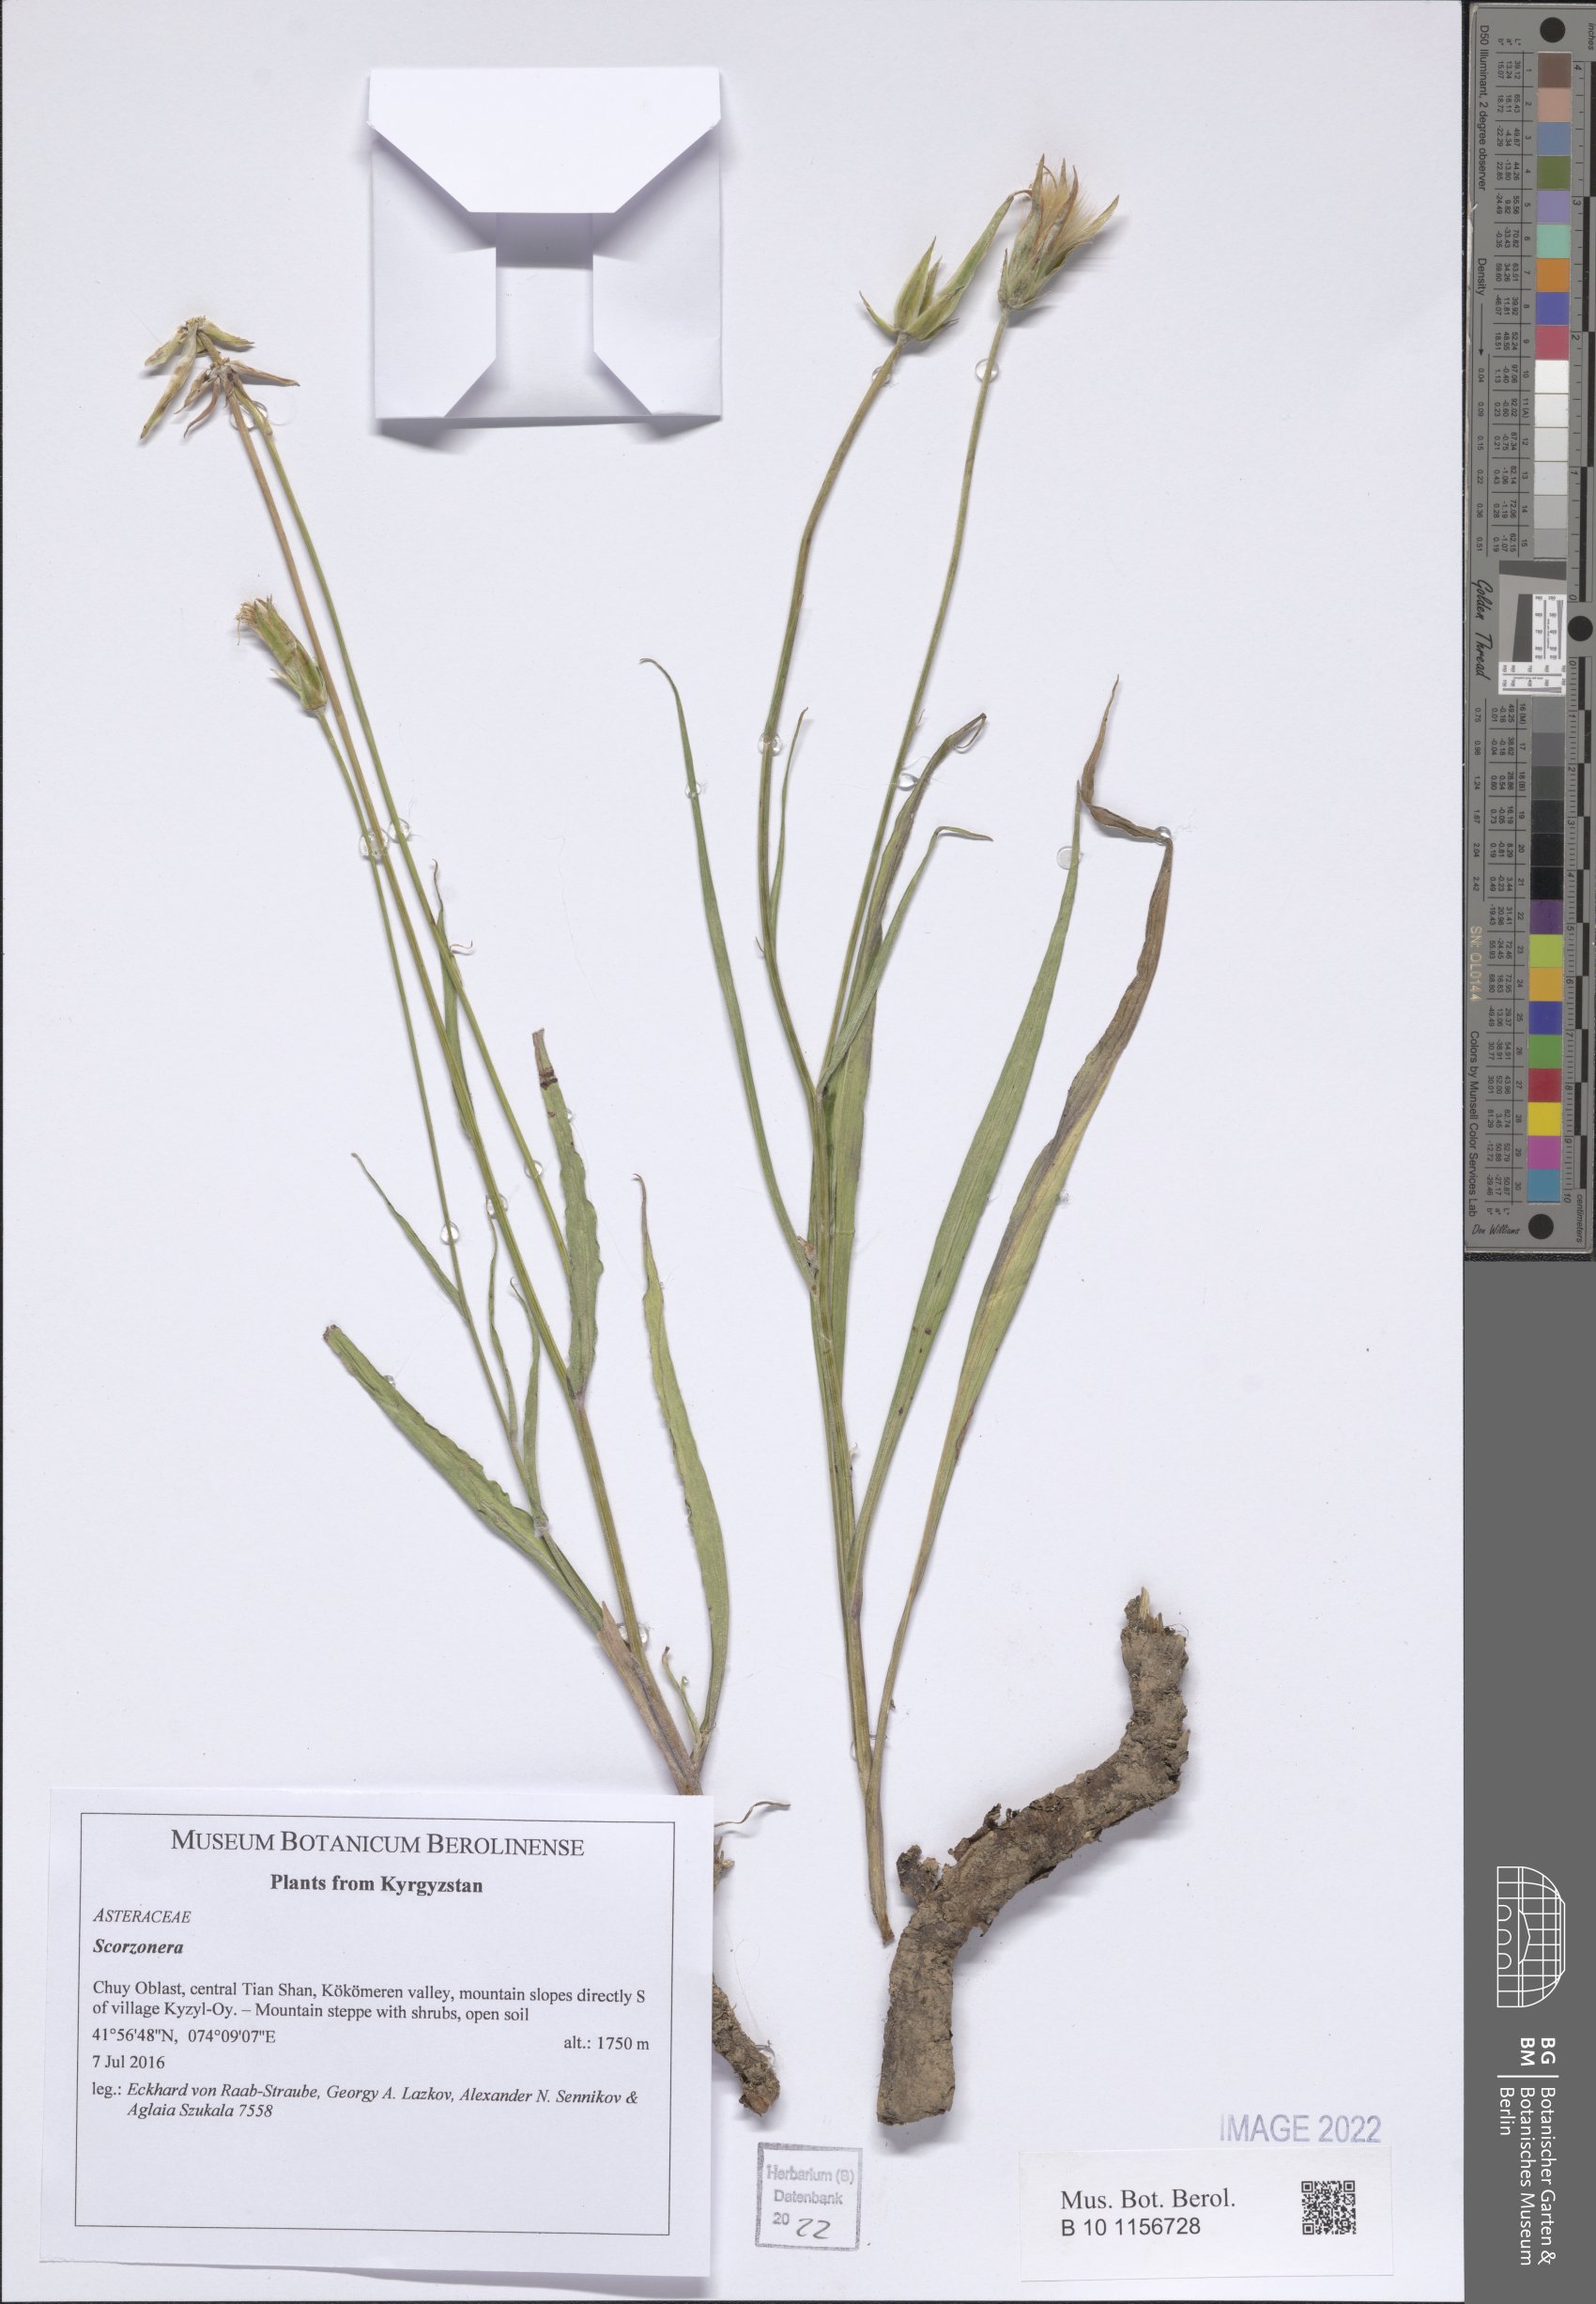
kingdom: Plantae
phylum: Tracheophyta
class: Magnoliopsida
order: Asterales
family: Asteraceae
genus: Scorzonera
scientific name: Scorzonera
